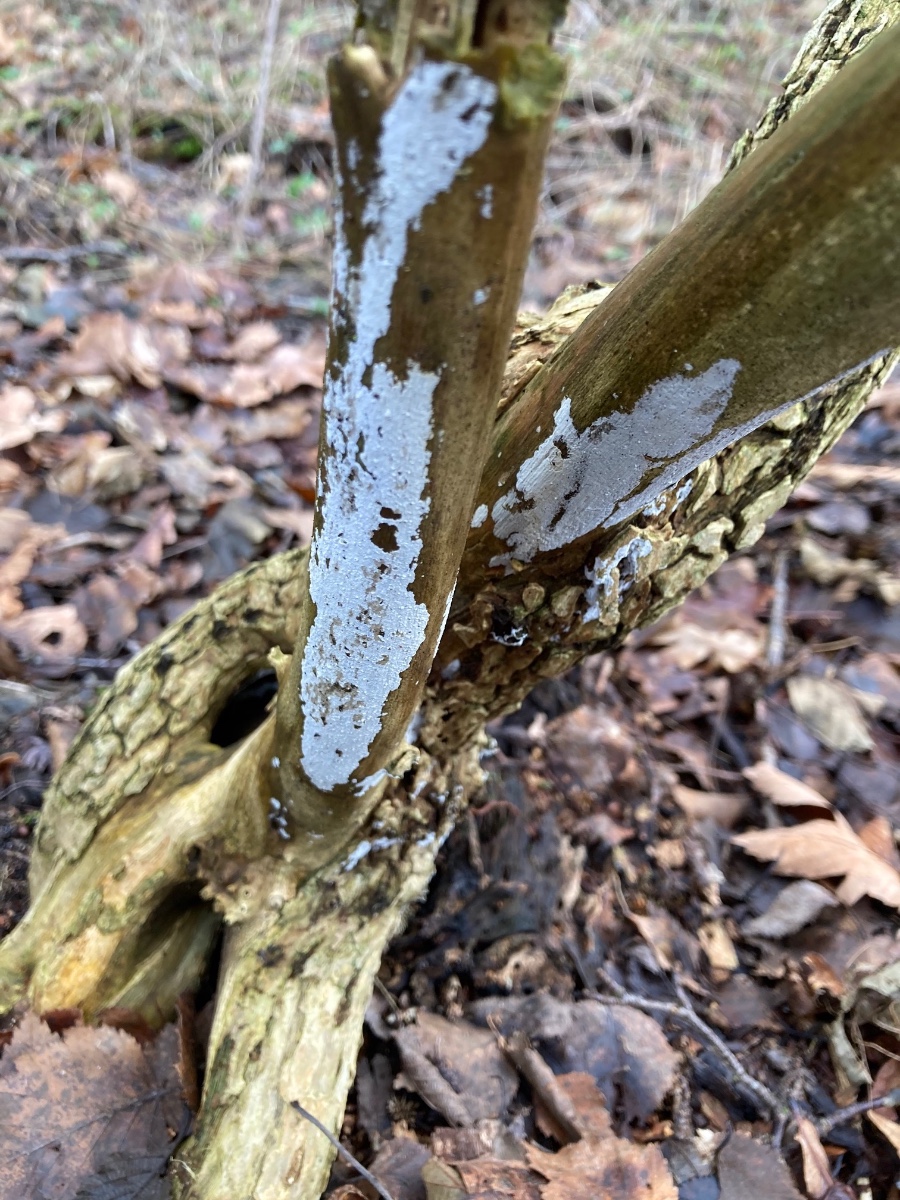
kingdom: Fungi
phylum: Basidiomycota
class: Agaricomycetes
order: Corticiales
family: Corticiaceae
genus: Lyomyces
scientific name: Lyomyces sambuci
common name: almindelig hyldehinde
